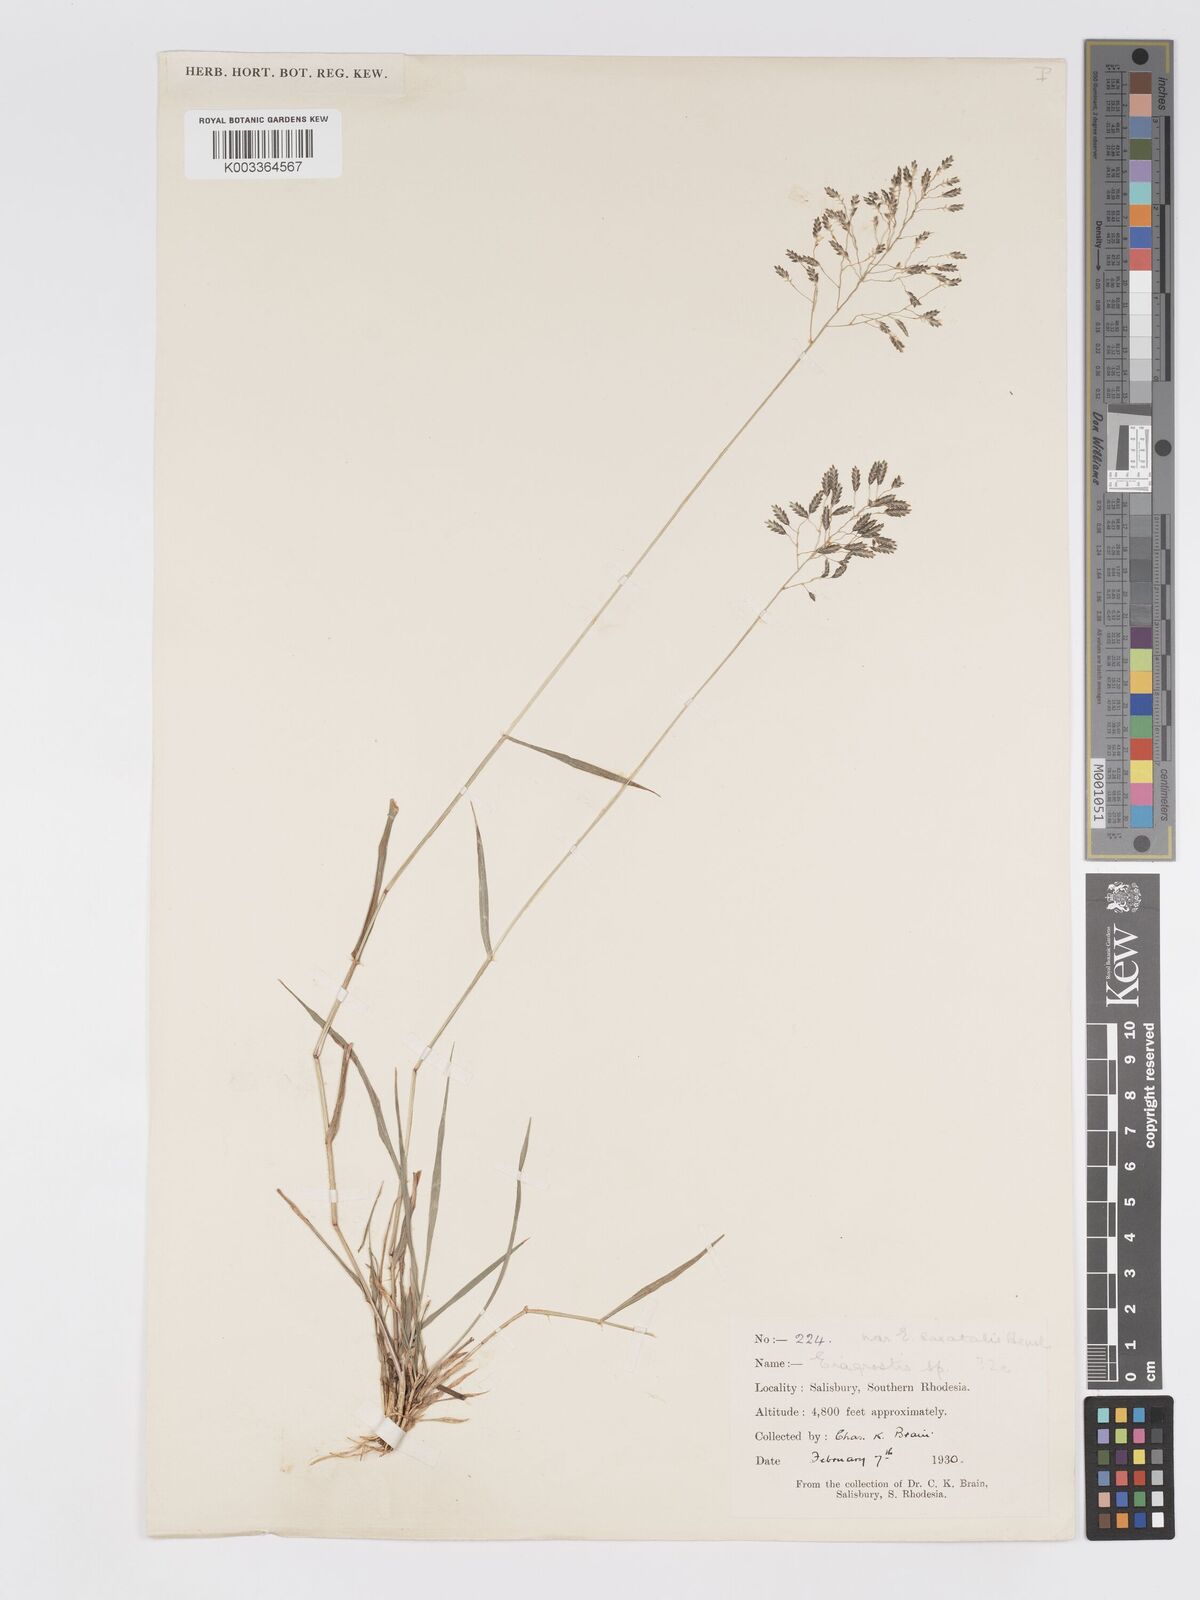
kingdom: Plantae
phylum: Tracheophyta
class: Liliopsida
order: Poales
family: Poaceae
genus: Eragrostis
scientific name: Eragrostis patentipilosa
